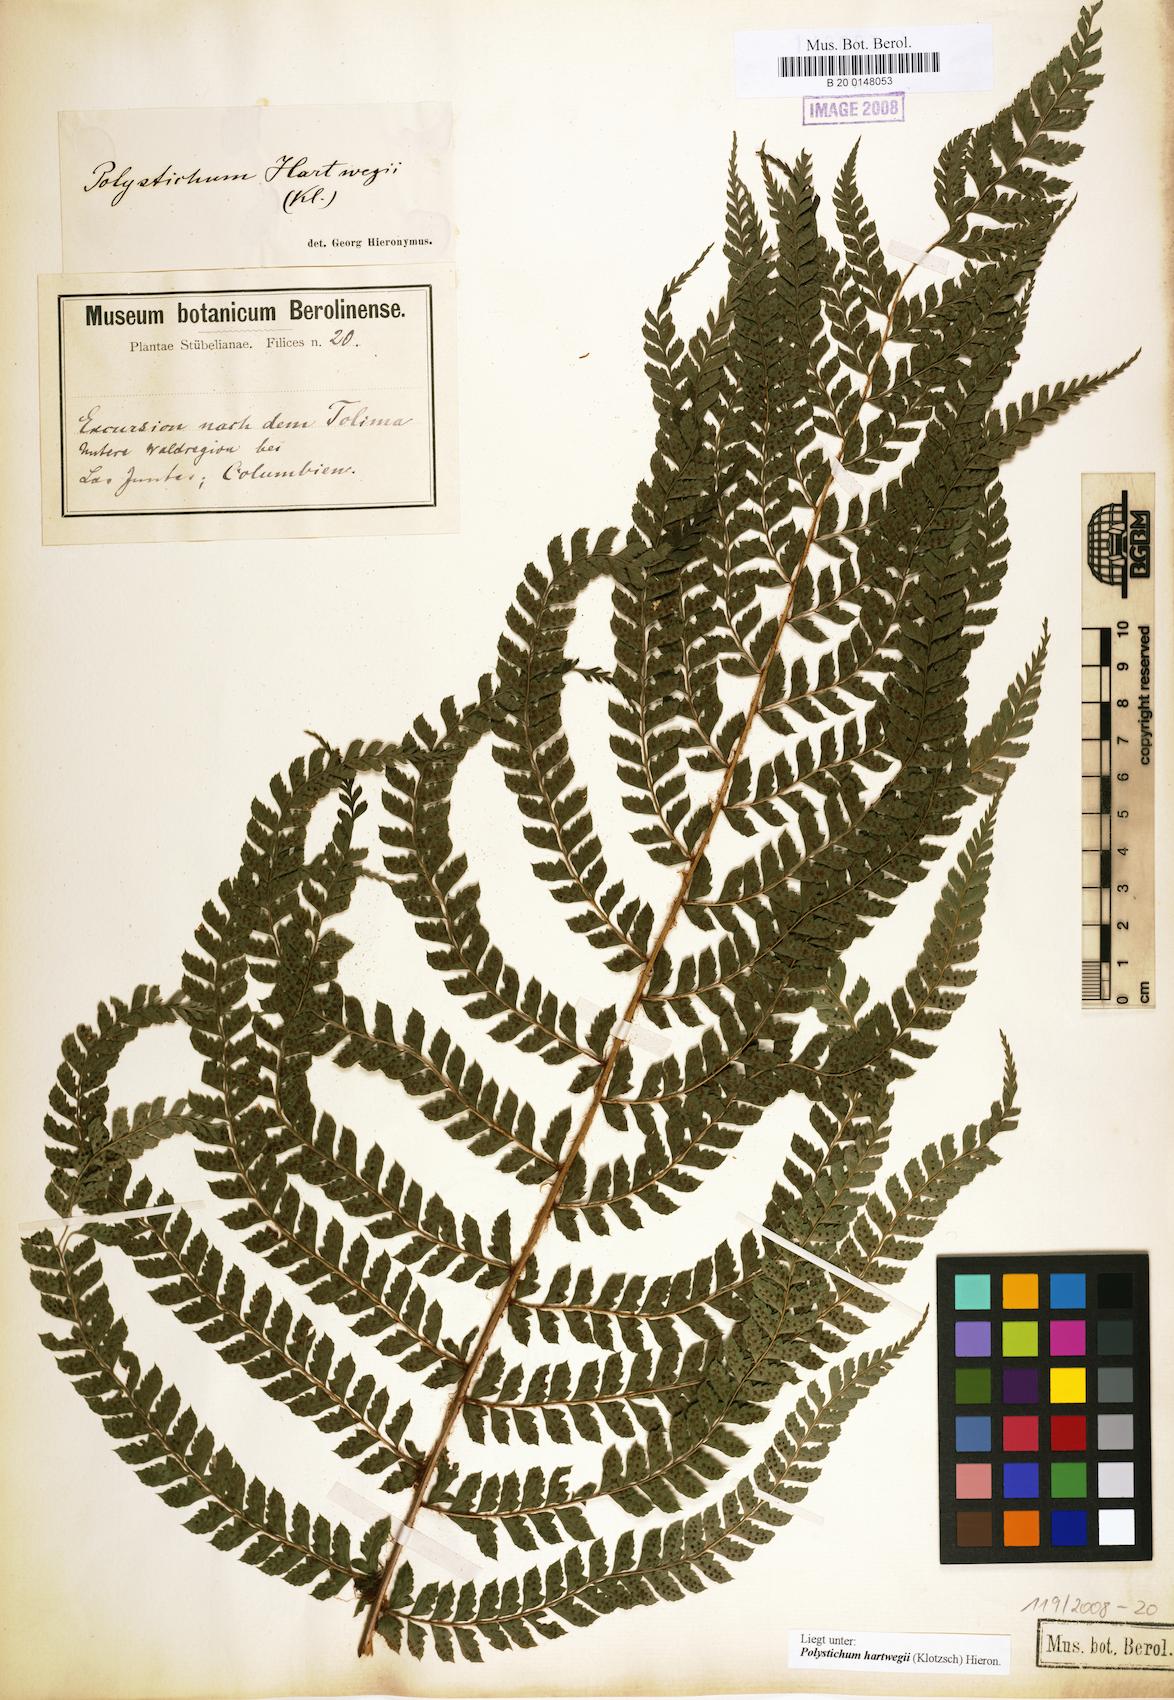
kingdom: Plantae
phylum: Tracheophyta
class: Polypodiopsida
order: Polypodiales
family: Dryopteridaceae
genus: Polystichum
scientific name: Polystichum hartwegii
